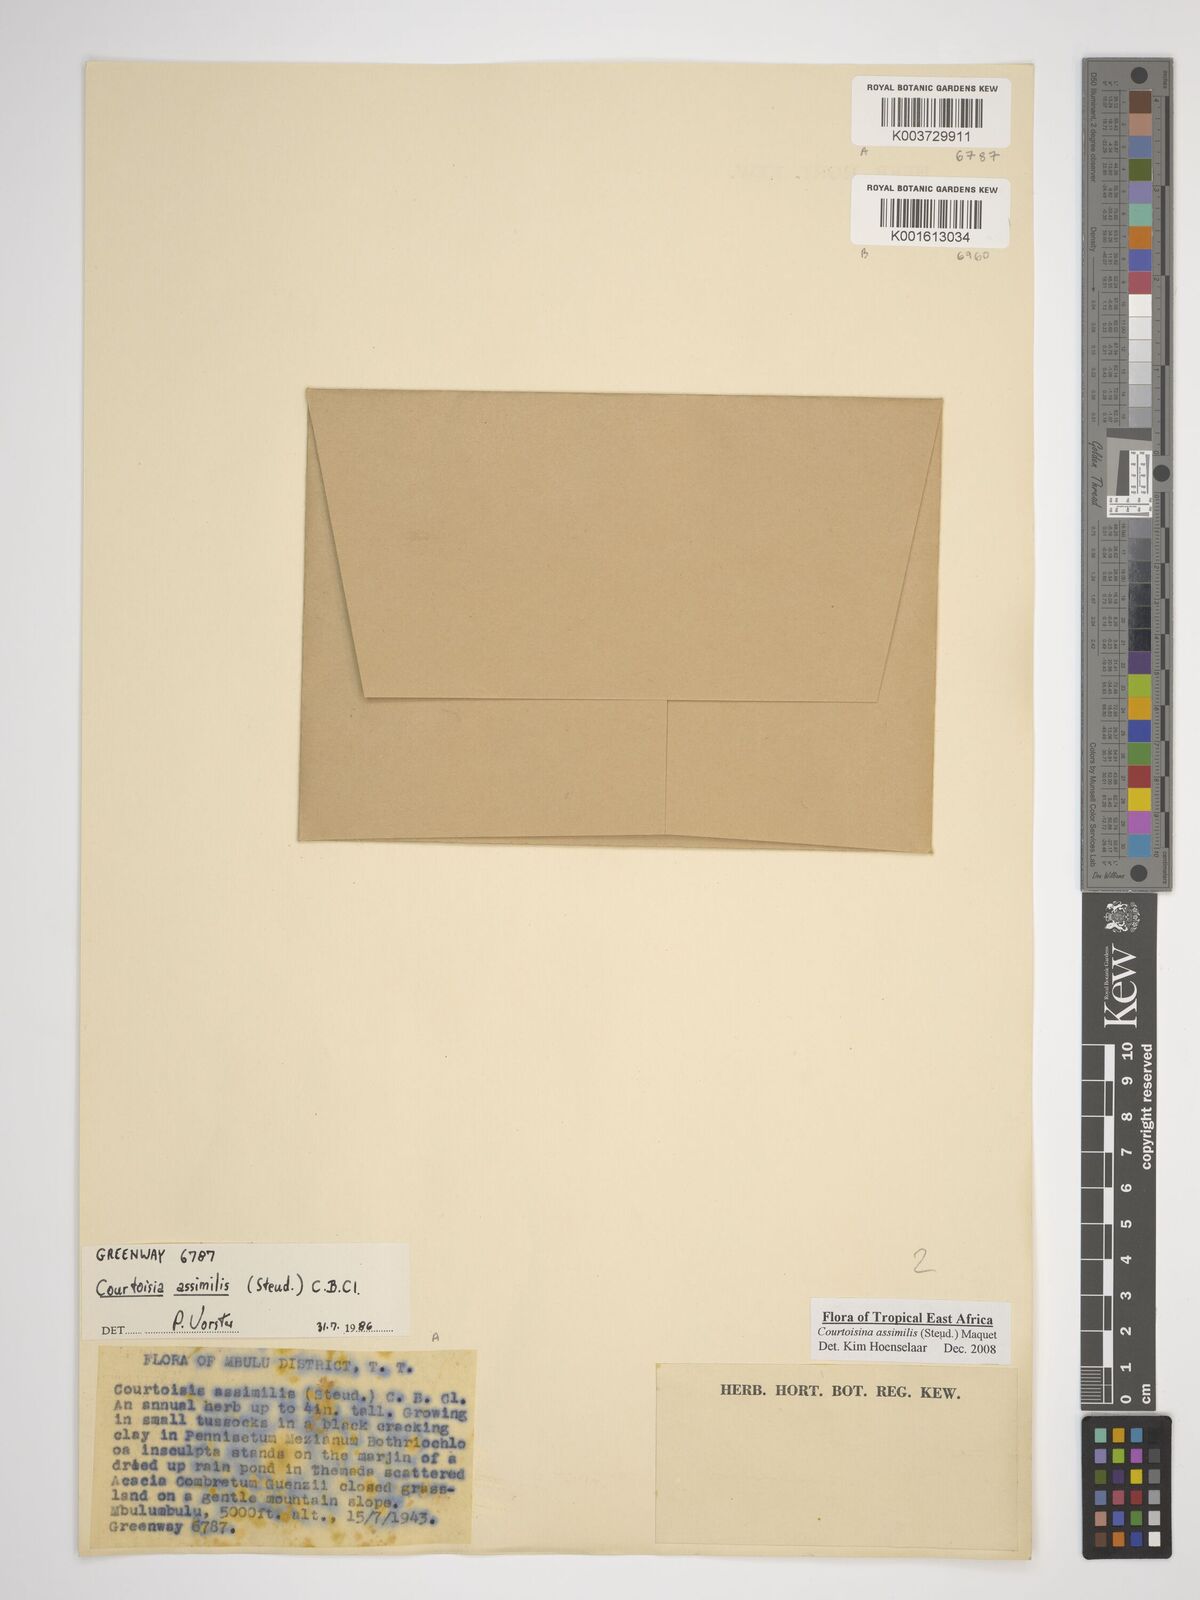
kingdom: Plantae
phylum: Tracheophyta
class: Liliopsida
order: Poales
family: Cyperaceae
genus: Cyperus
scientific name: Cyperus assimilis
